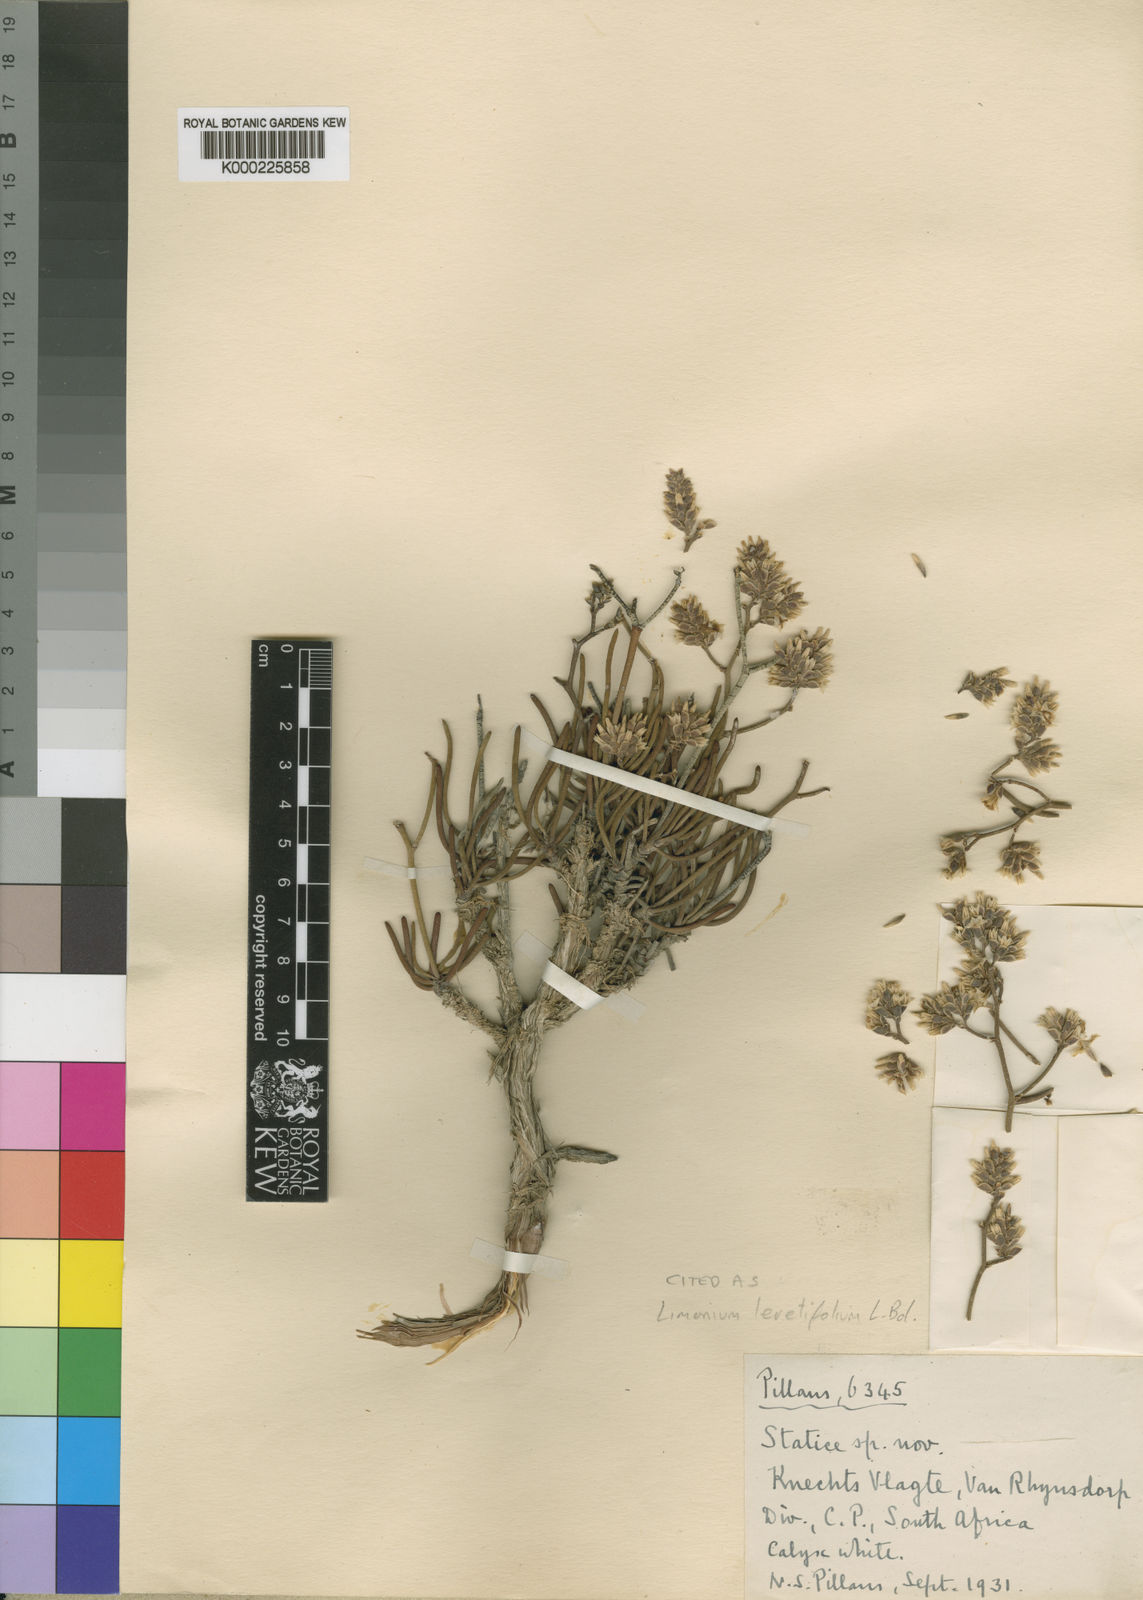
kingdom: Plantae
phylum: Tracheophyta
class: Magnoliopsida
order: Caryophyllales
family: Plumbaginaceae
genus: Limonium
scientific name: Limonium teretifolium
